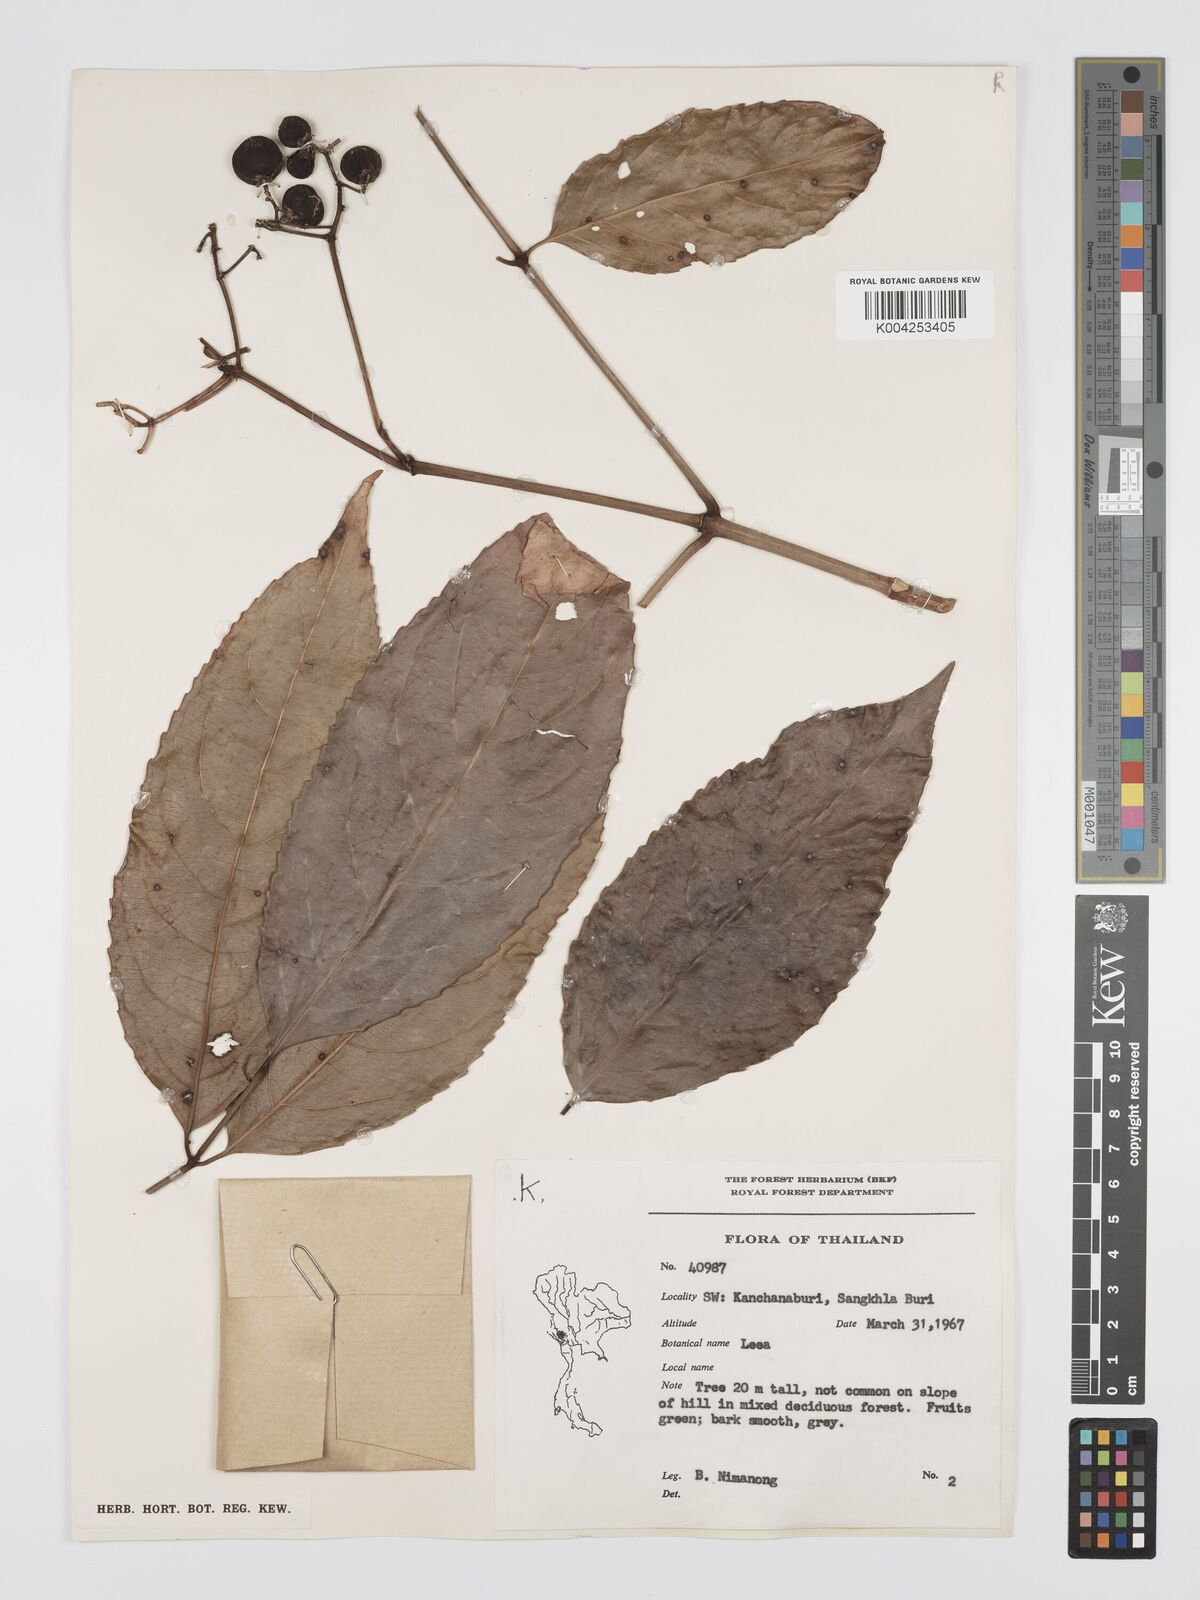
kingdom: Plantae
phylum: Tracheophyta
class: Magnoliopsida
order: Vitales
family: Vitaceae
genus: Leea
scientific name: Leea
